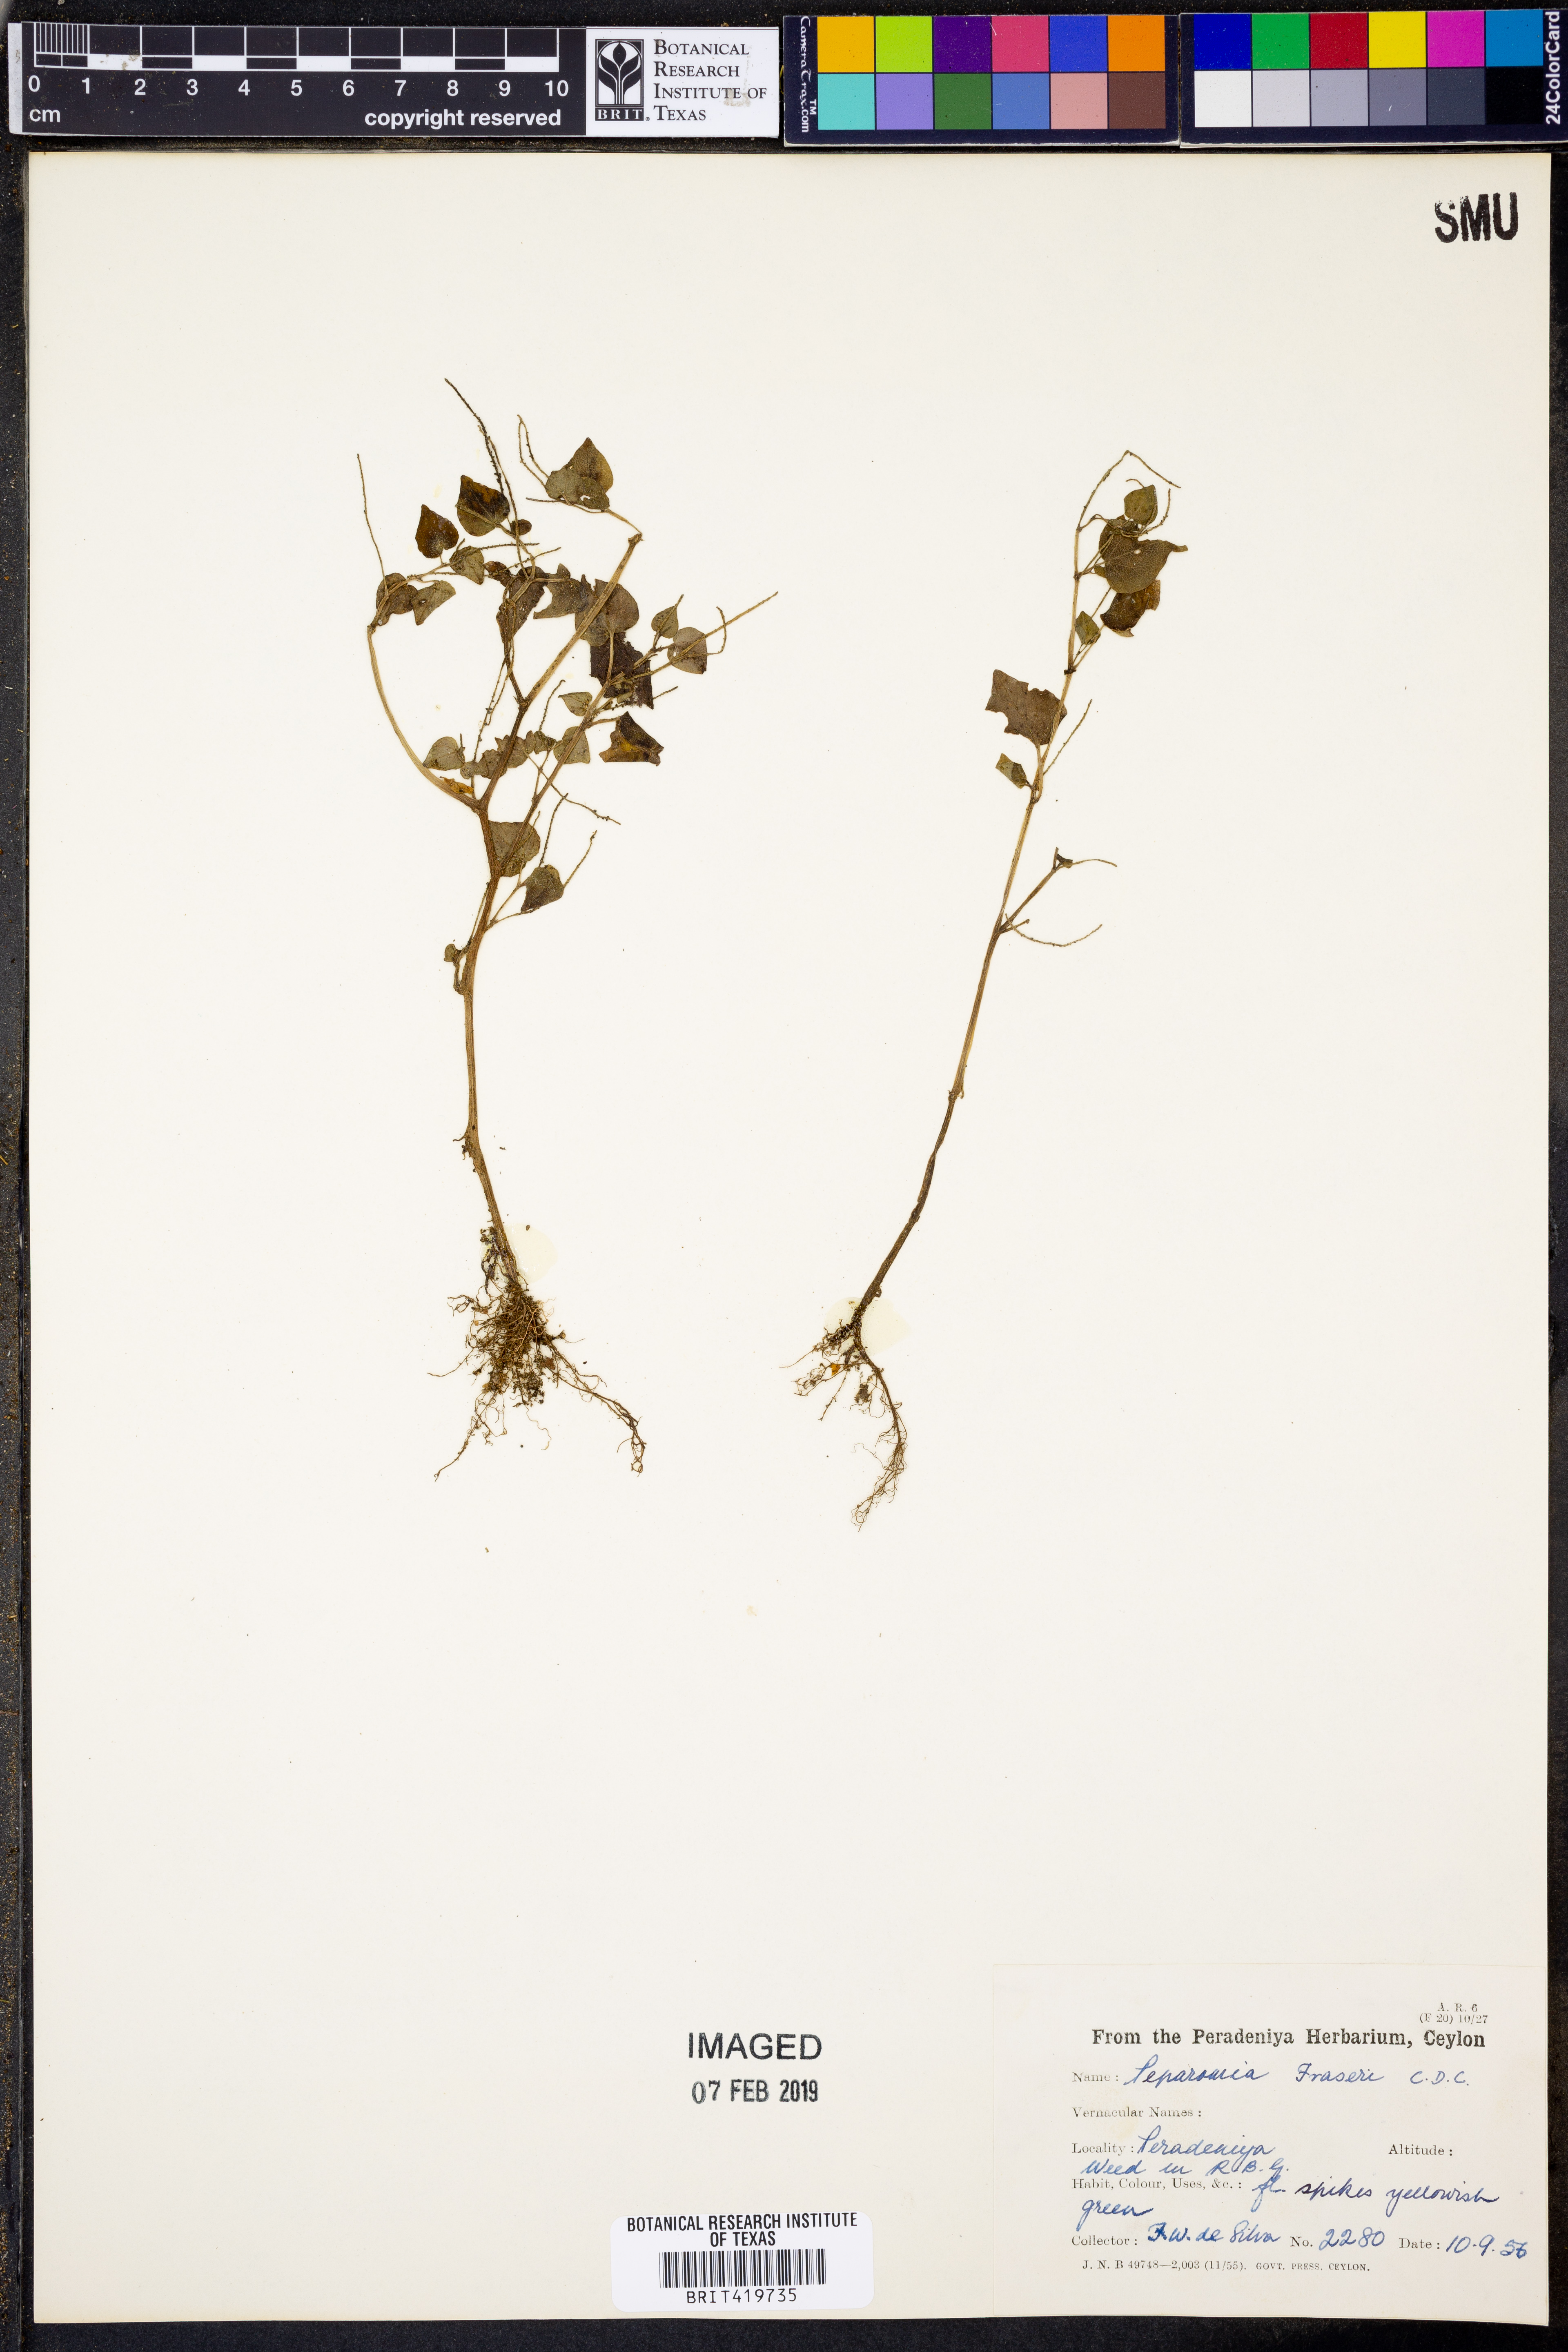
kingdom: Plantae
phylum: Tracheophyta
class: Magnoliopsida
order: Piperales
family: Piperaceae
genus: Peperomia
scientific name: Peperomia fraseri
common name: Mignonette peperomia
